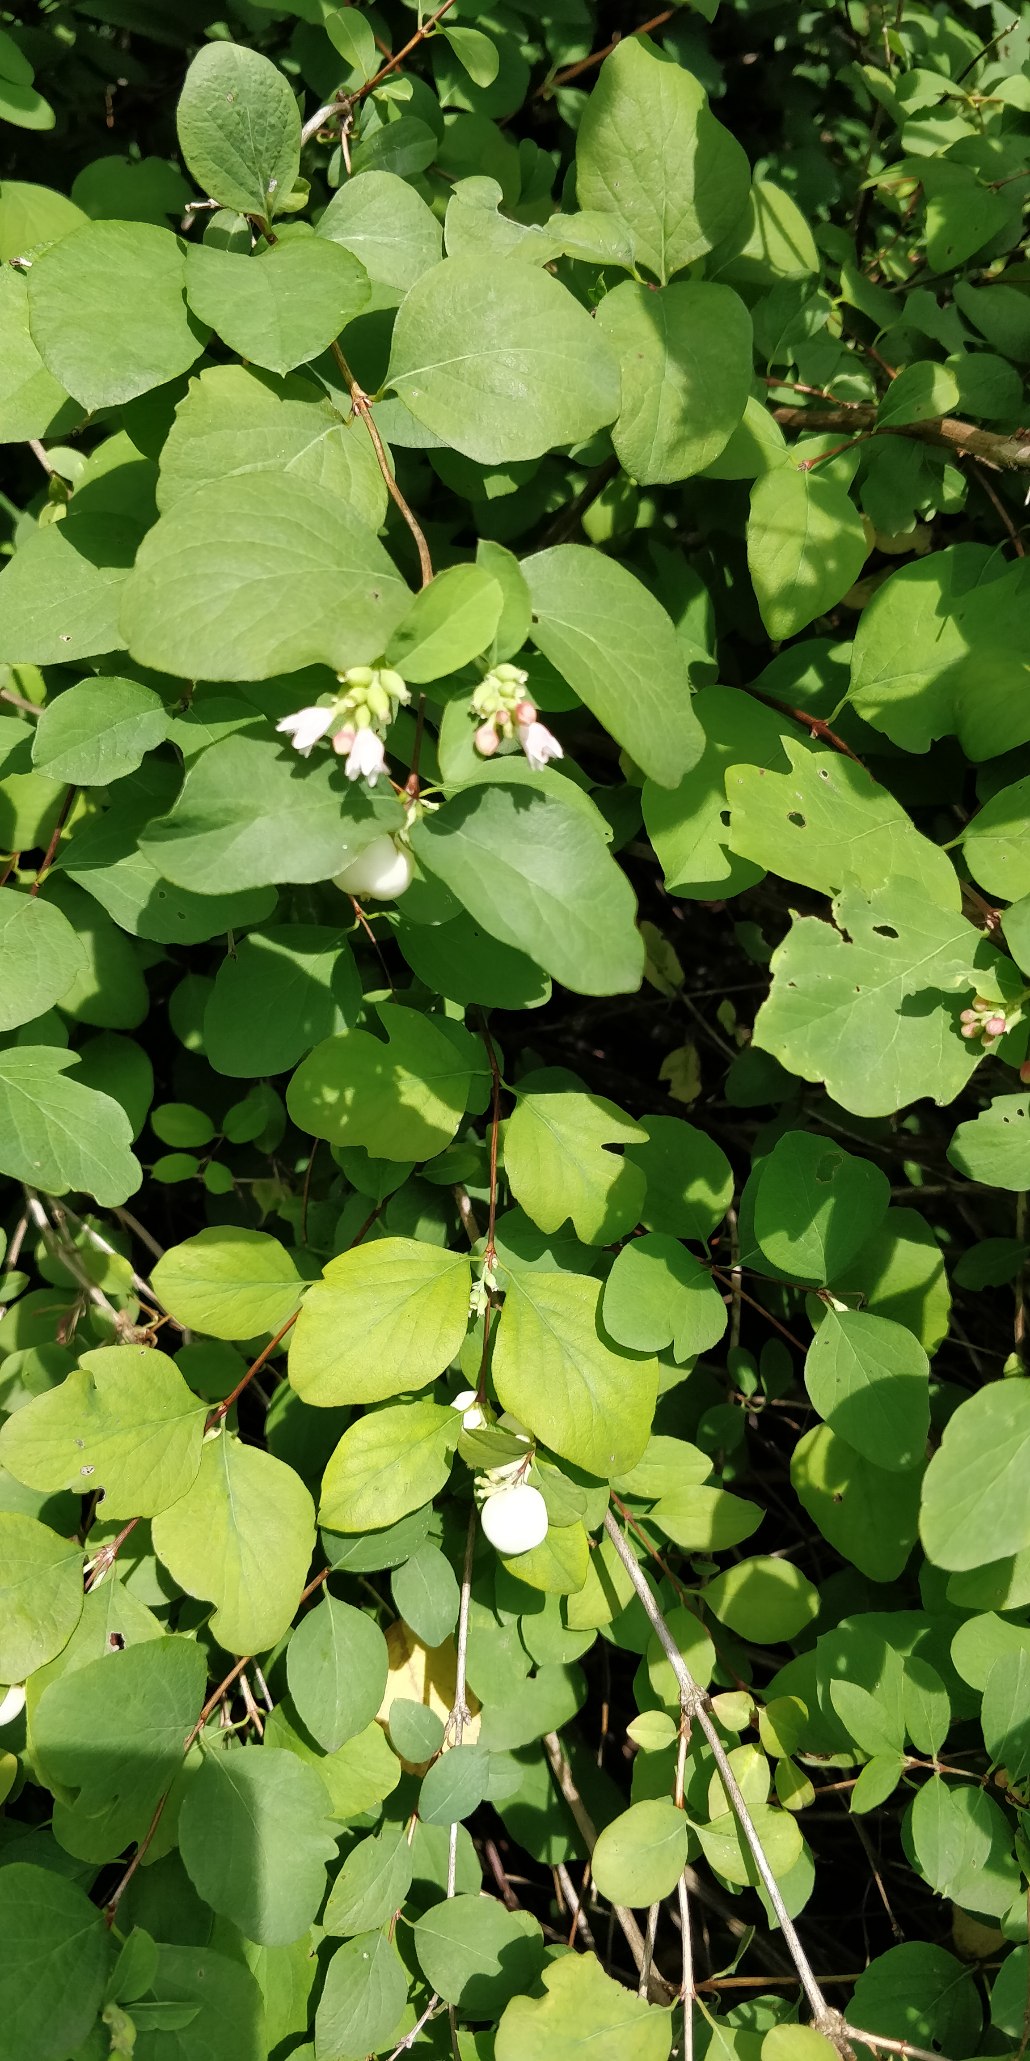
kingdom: Plantae
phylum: Tracheophyta
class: Magnoliopsida
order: Dipsacales
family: Caprifoliaceae
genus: Symphoricarpos
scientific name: Symphoricarpos albus
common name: Almindelig snebær
